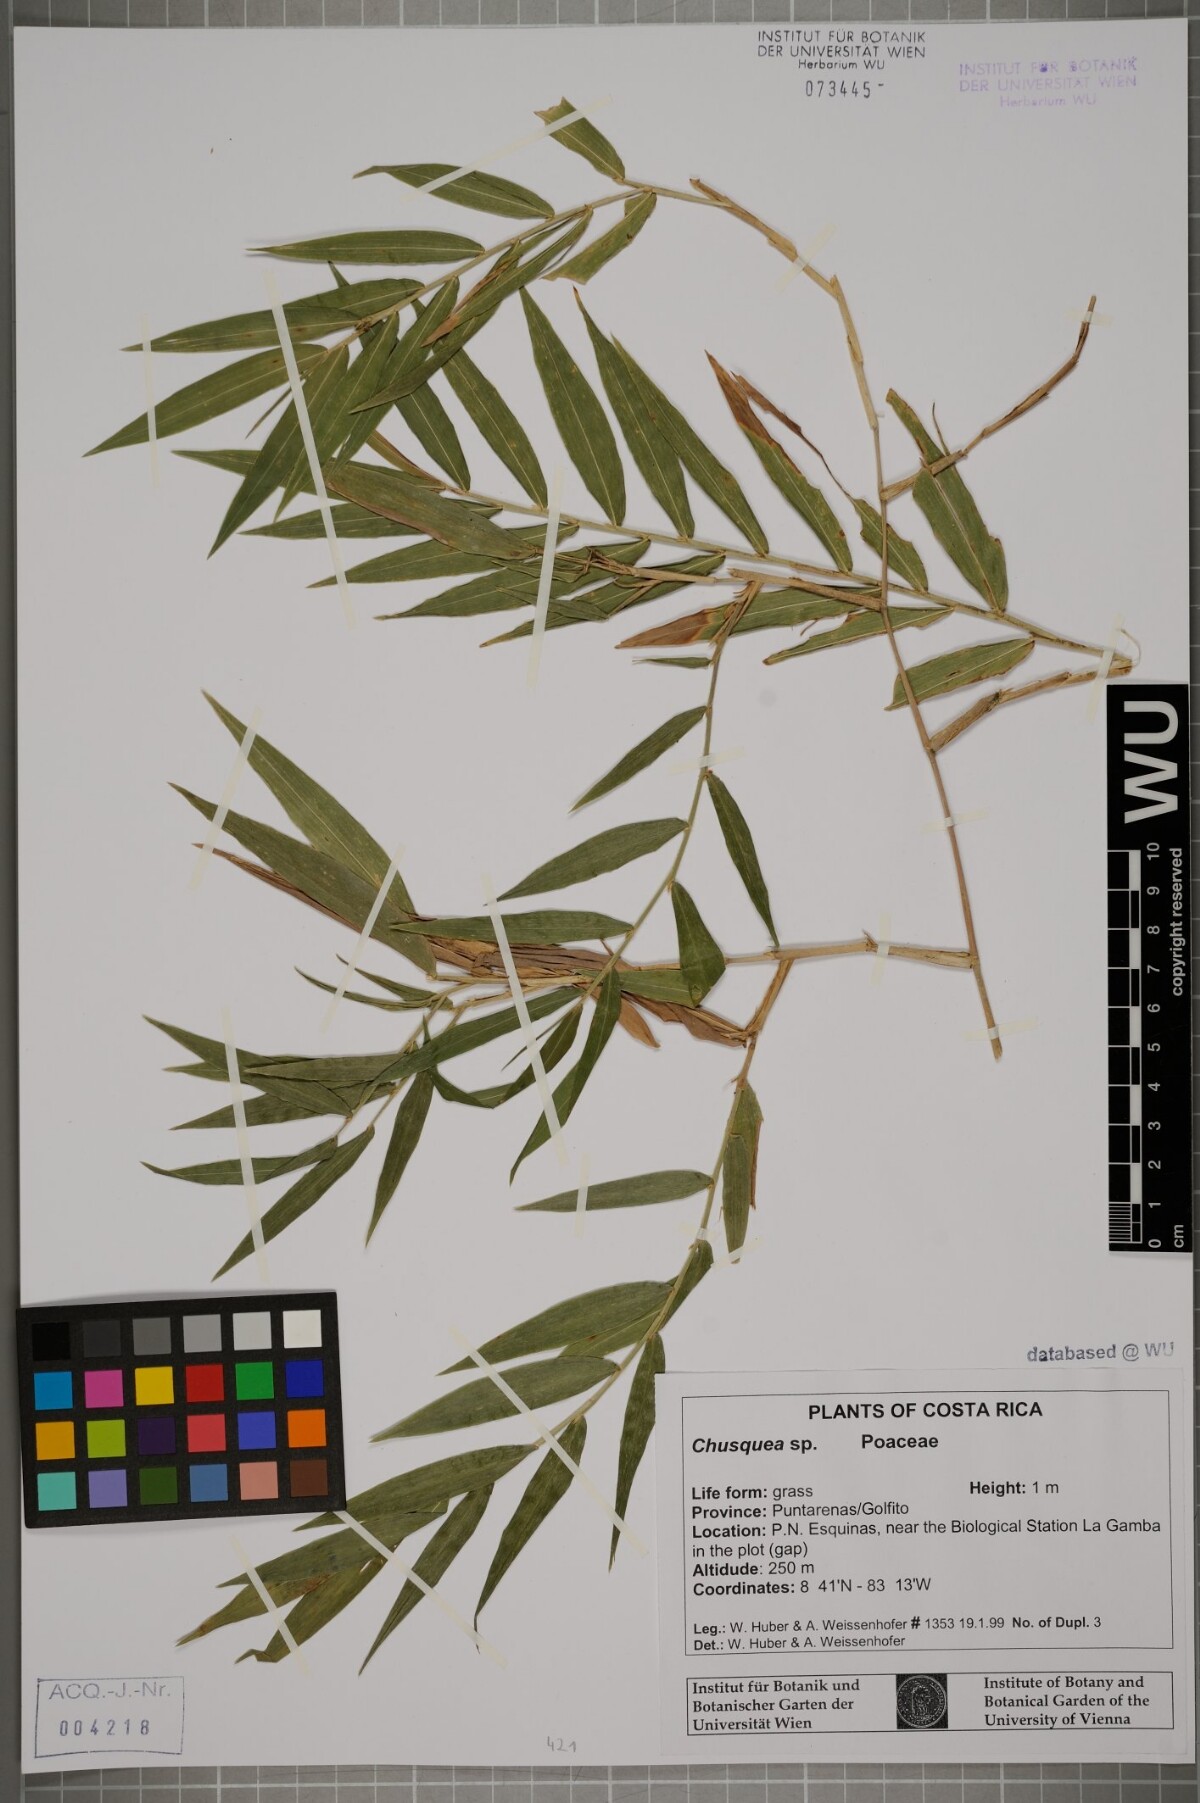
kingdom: Plantae
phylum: Tracheophyta
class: Liliopsida
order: Poales
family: Poaceae
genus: Chusquea
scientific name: Chusquea
